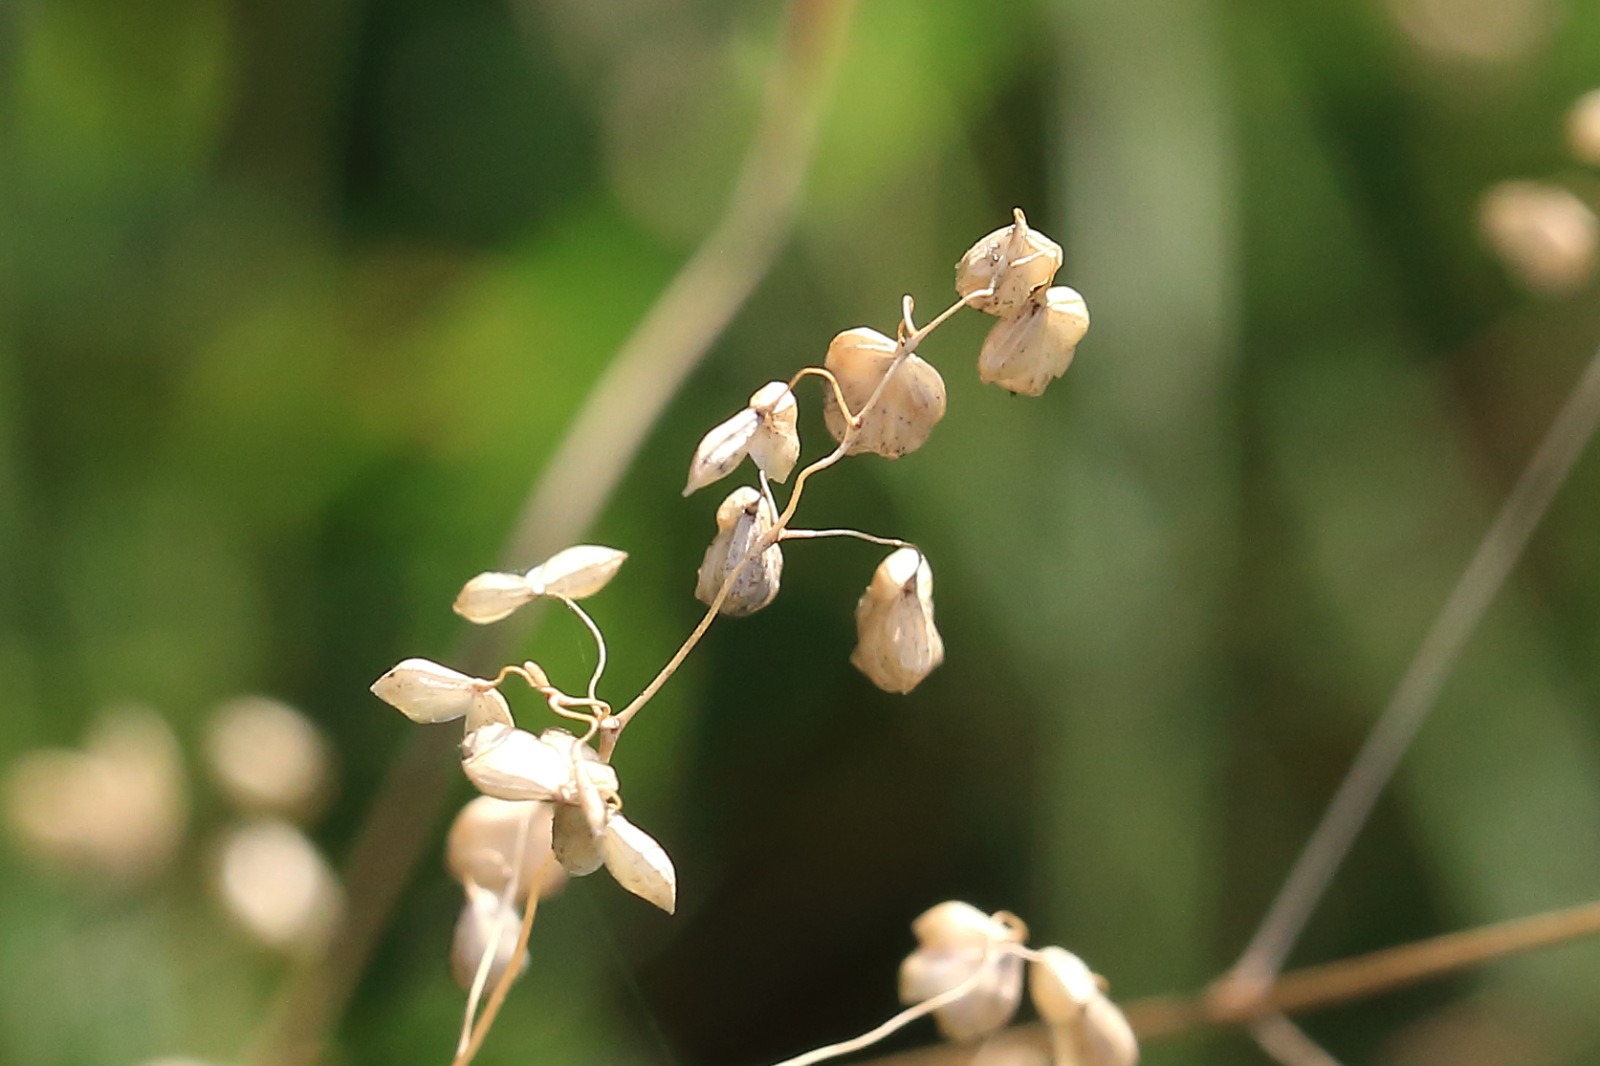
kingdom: Plantae
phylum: Tracheophyta
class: Liliopsida
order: Poales
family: Poaceae
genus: Briza
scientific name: Briza media
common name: Hjertegræs
